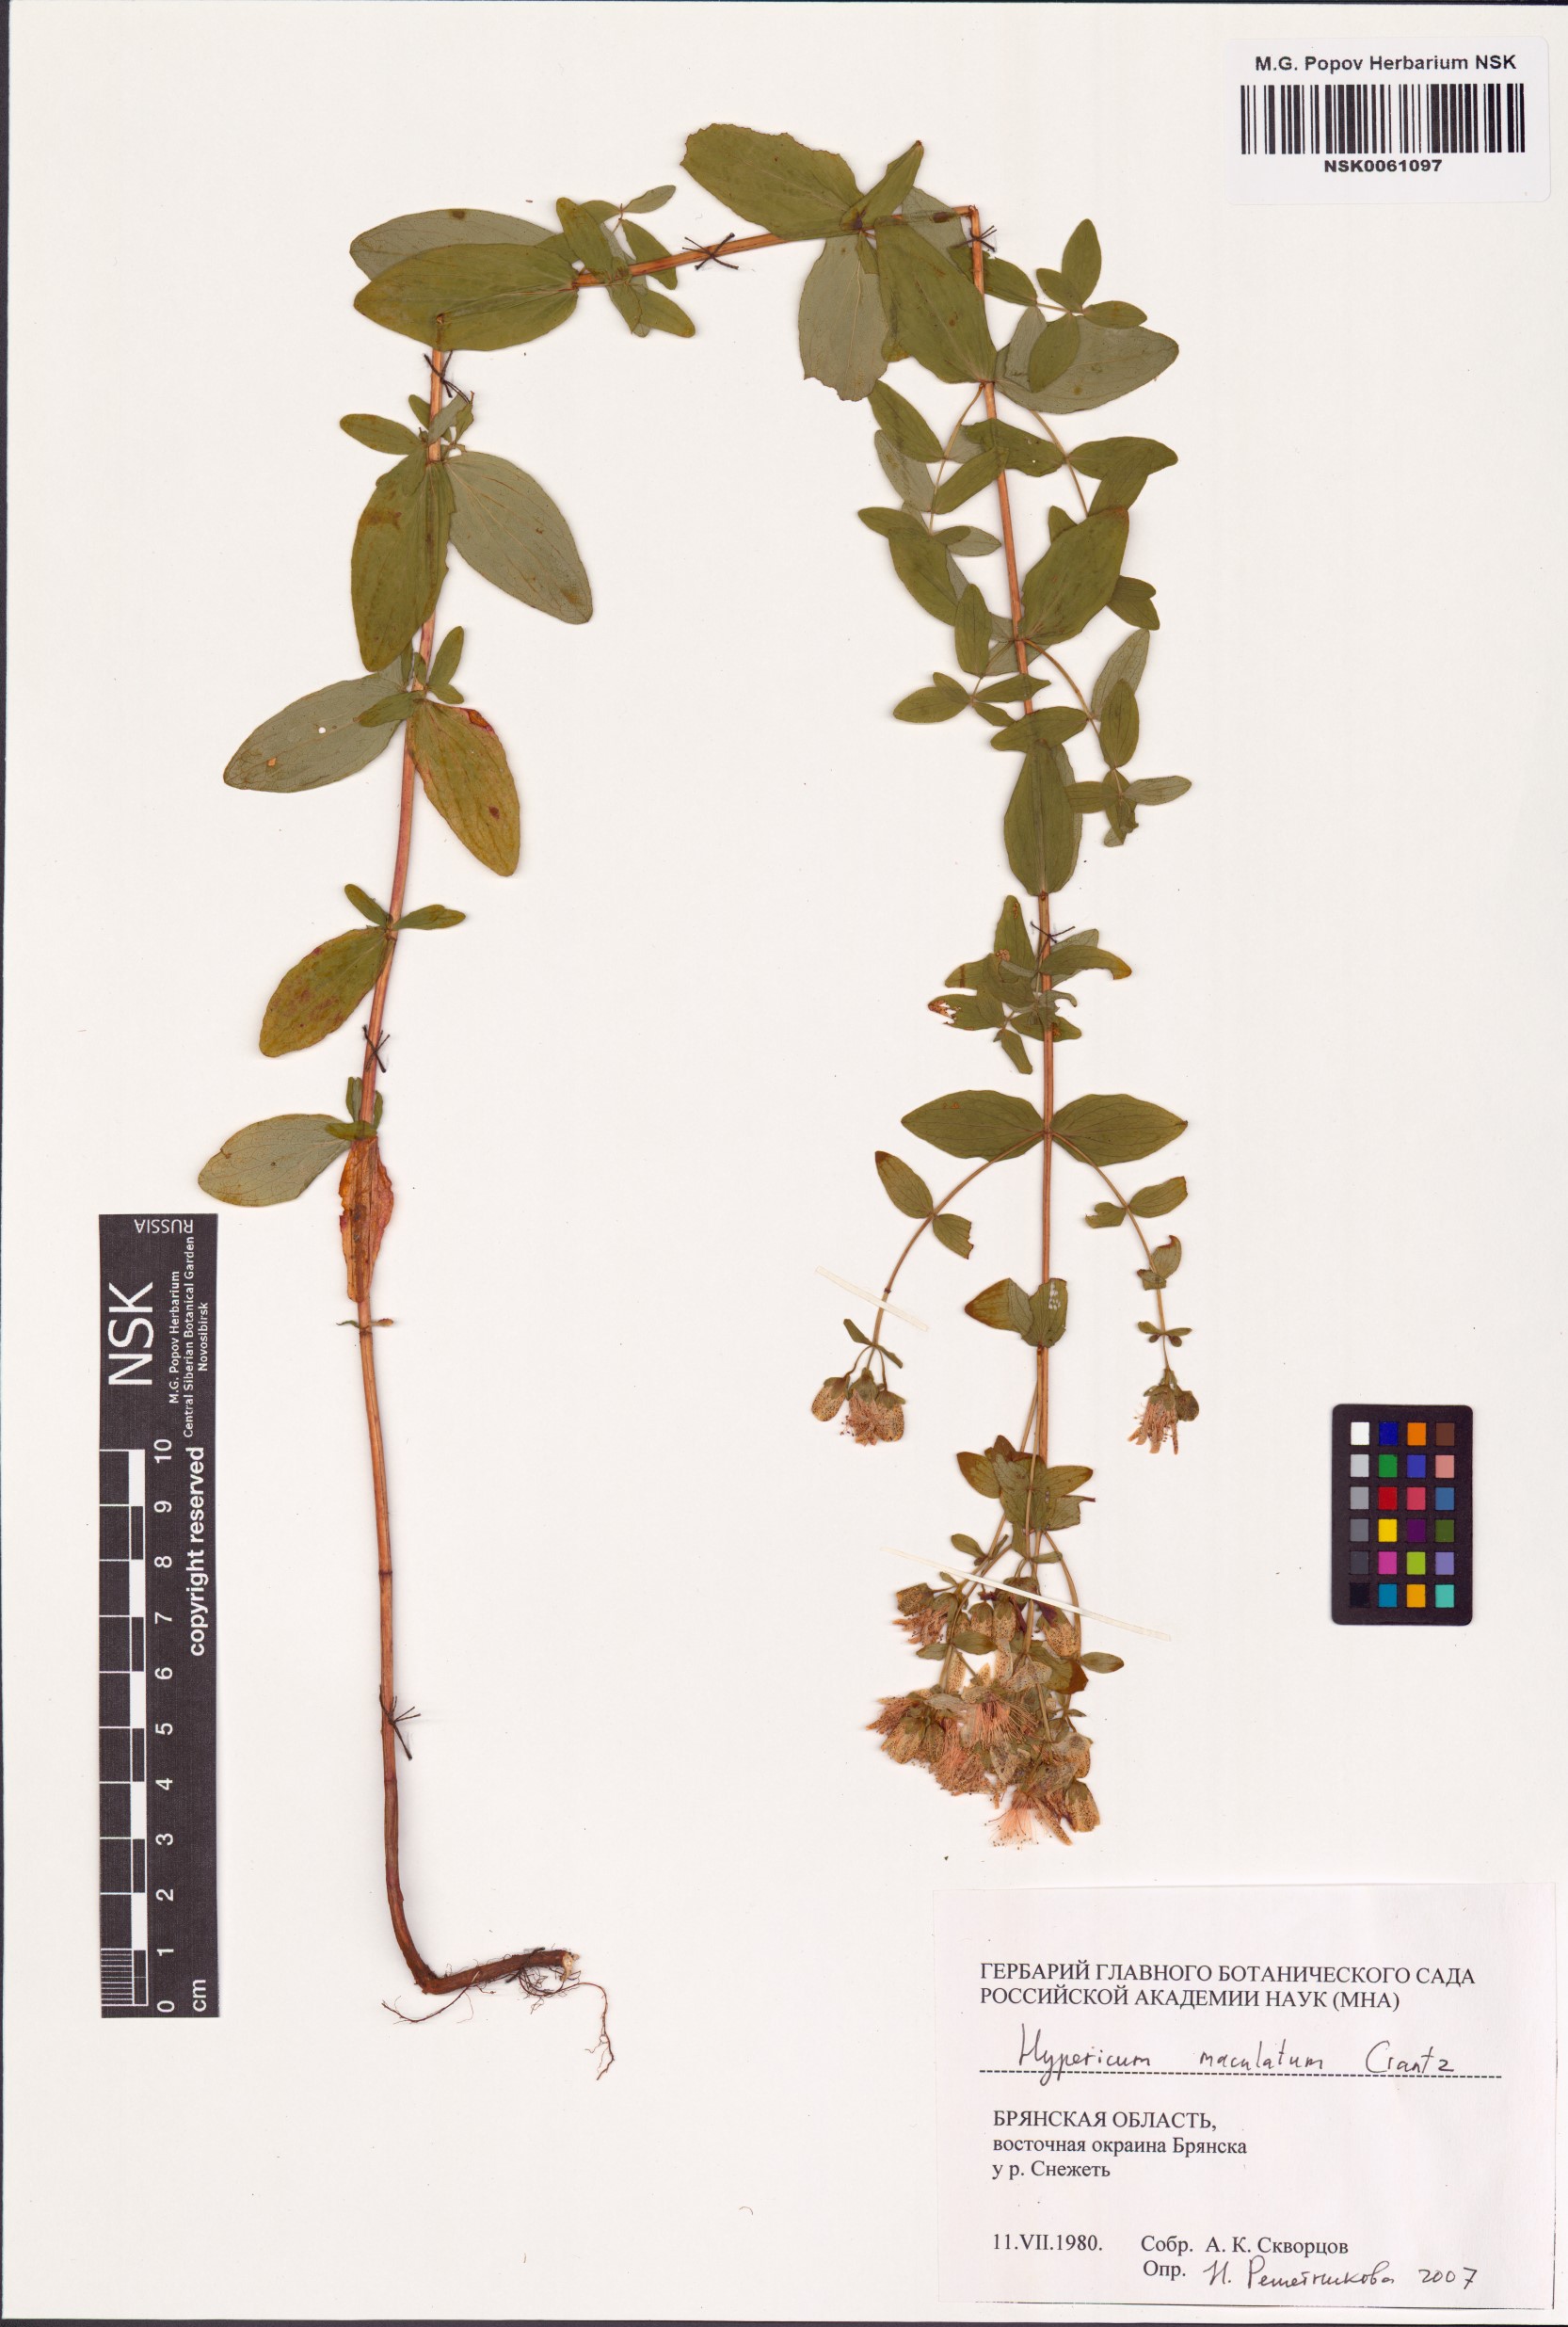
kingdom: Plantae
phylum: Tracheophyta
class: Magnoliopsida
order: Malpighiales
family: Hypericaceae
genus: Hypericum
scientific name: Hypericum maculatum
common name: Imperforate st. john's-wort
